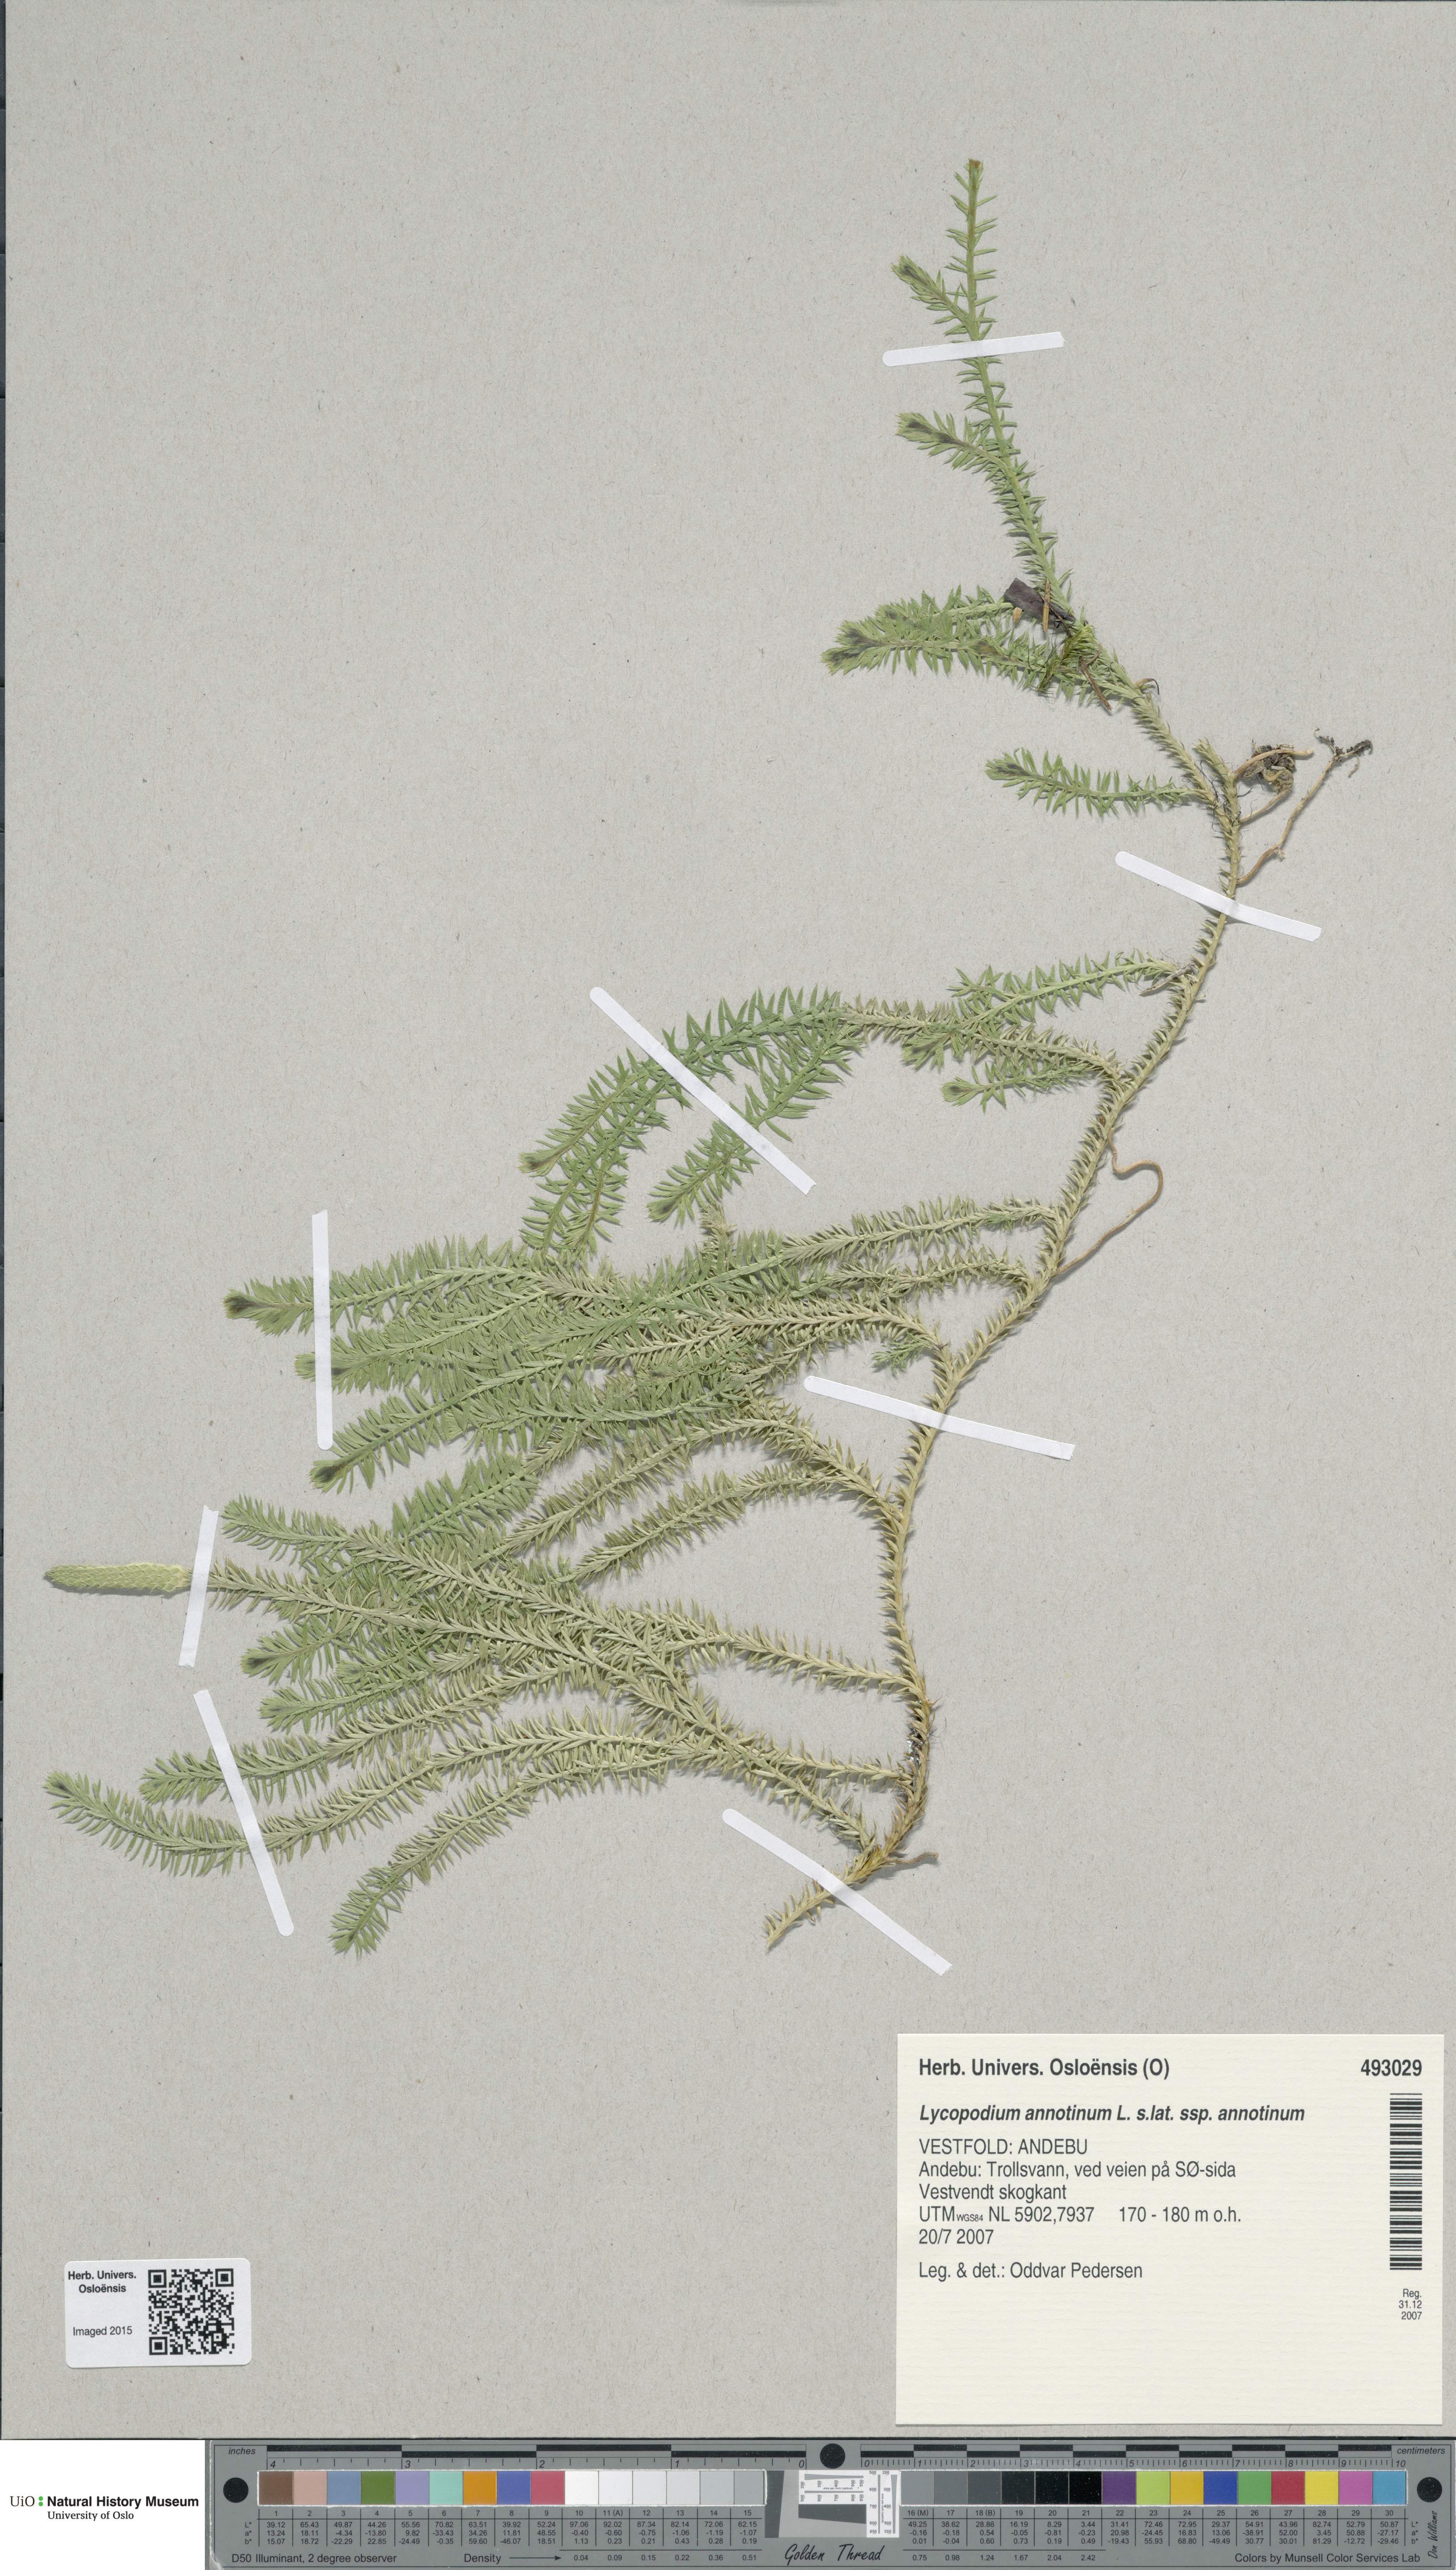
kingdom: Plantae
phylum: Tracheophyta
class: Lycopodiopsida
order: Lycopodiales
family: Lycopodiaceae
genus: Spinulum
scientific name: Spinulum annotinum
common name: Interrupted club-moss
